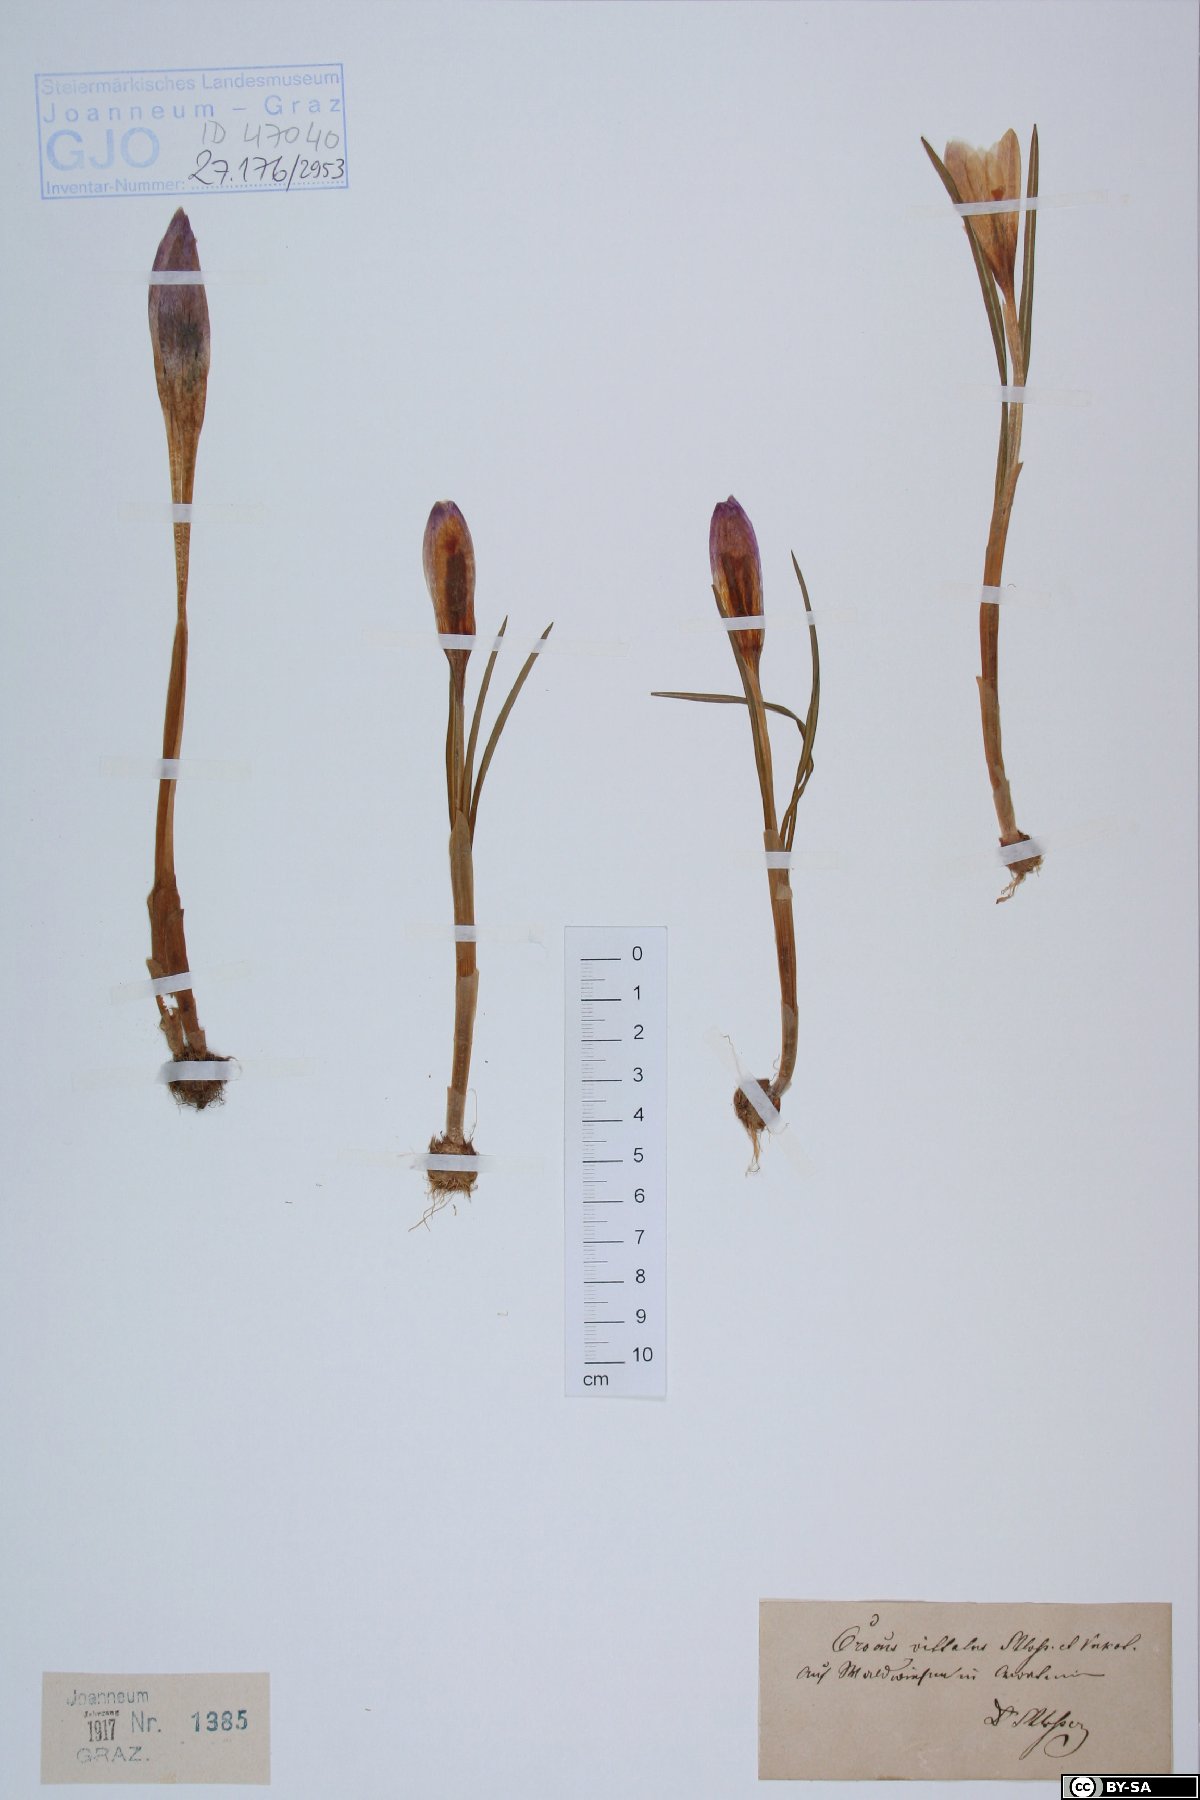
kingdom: Plantae
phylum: Tracheophyta
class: Liliopsida
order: Asparagales
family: Iridaceae
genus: Crocus
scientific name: Crocus heuffelianus
